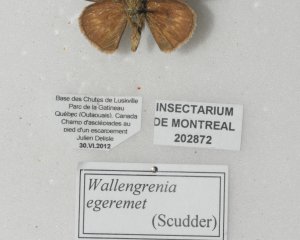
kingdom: Animalia
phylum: Arthropoda
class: Insecta
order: Lepidoptera
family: Hesperiidae
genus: Polites
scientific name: Polites egeremet
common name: Northern Broken-Dash
